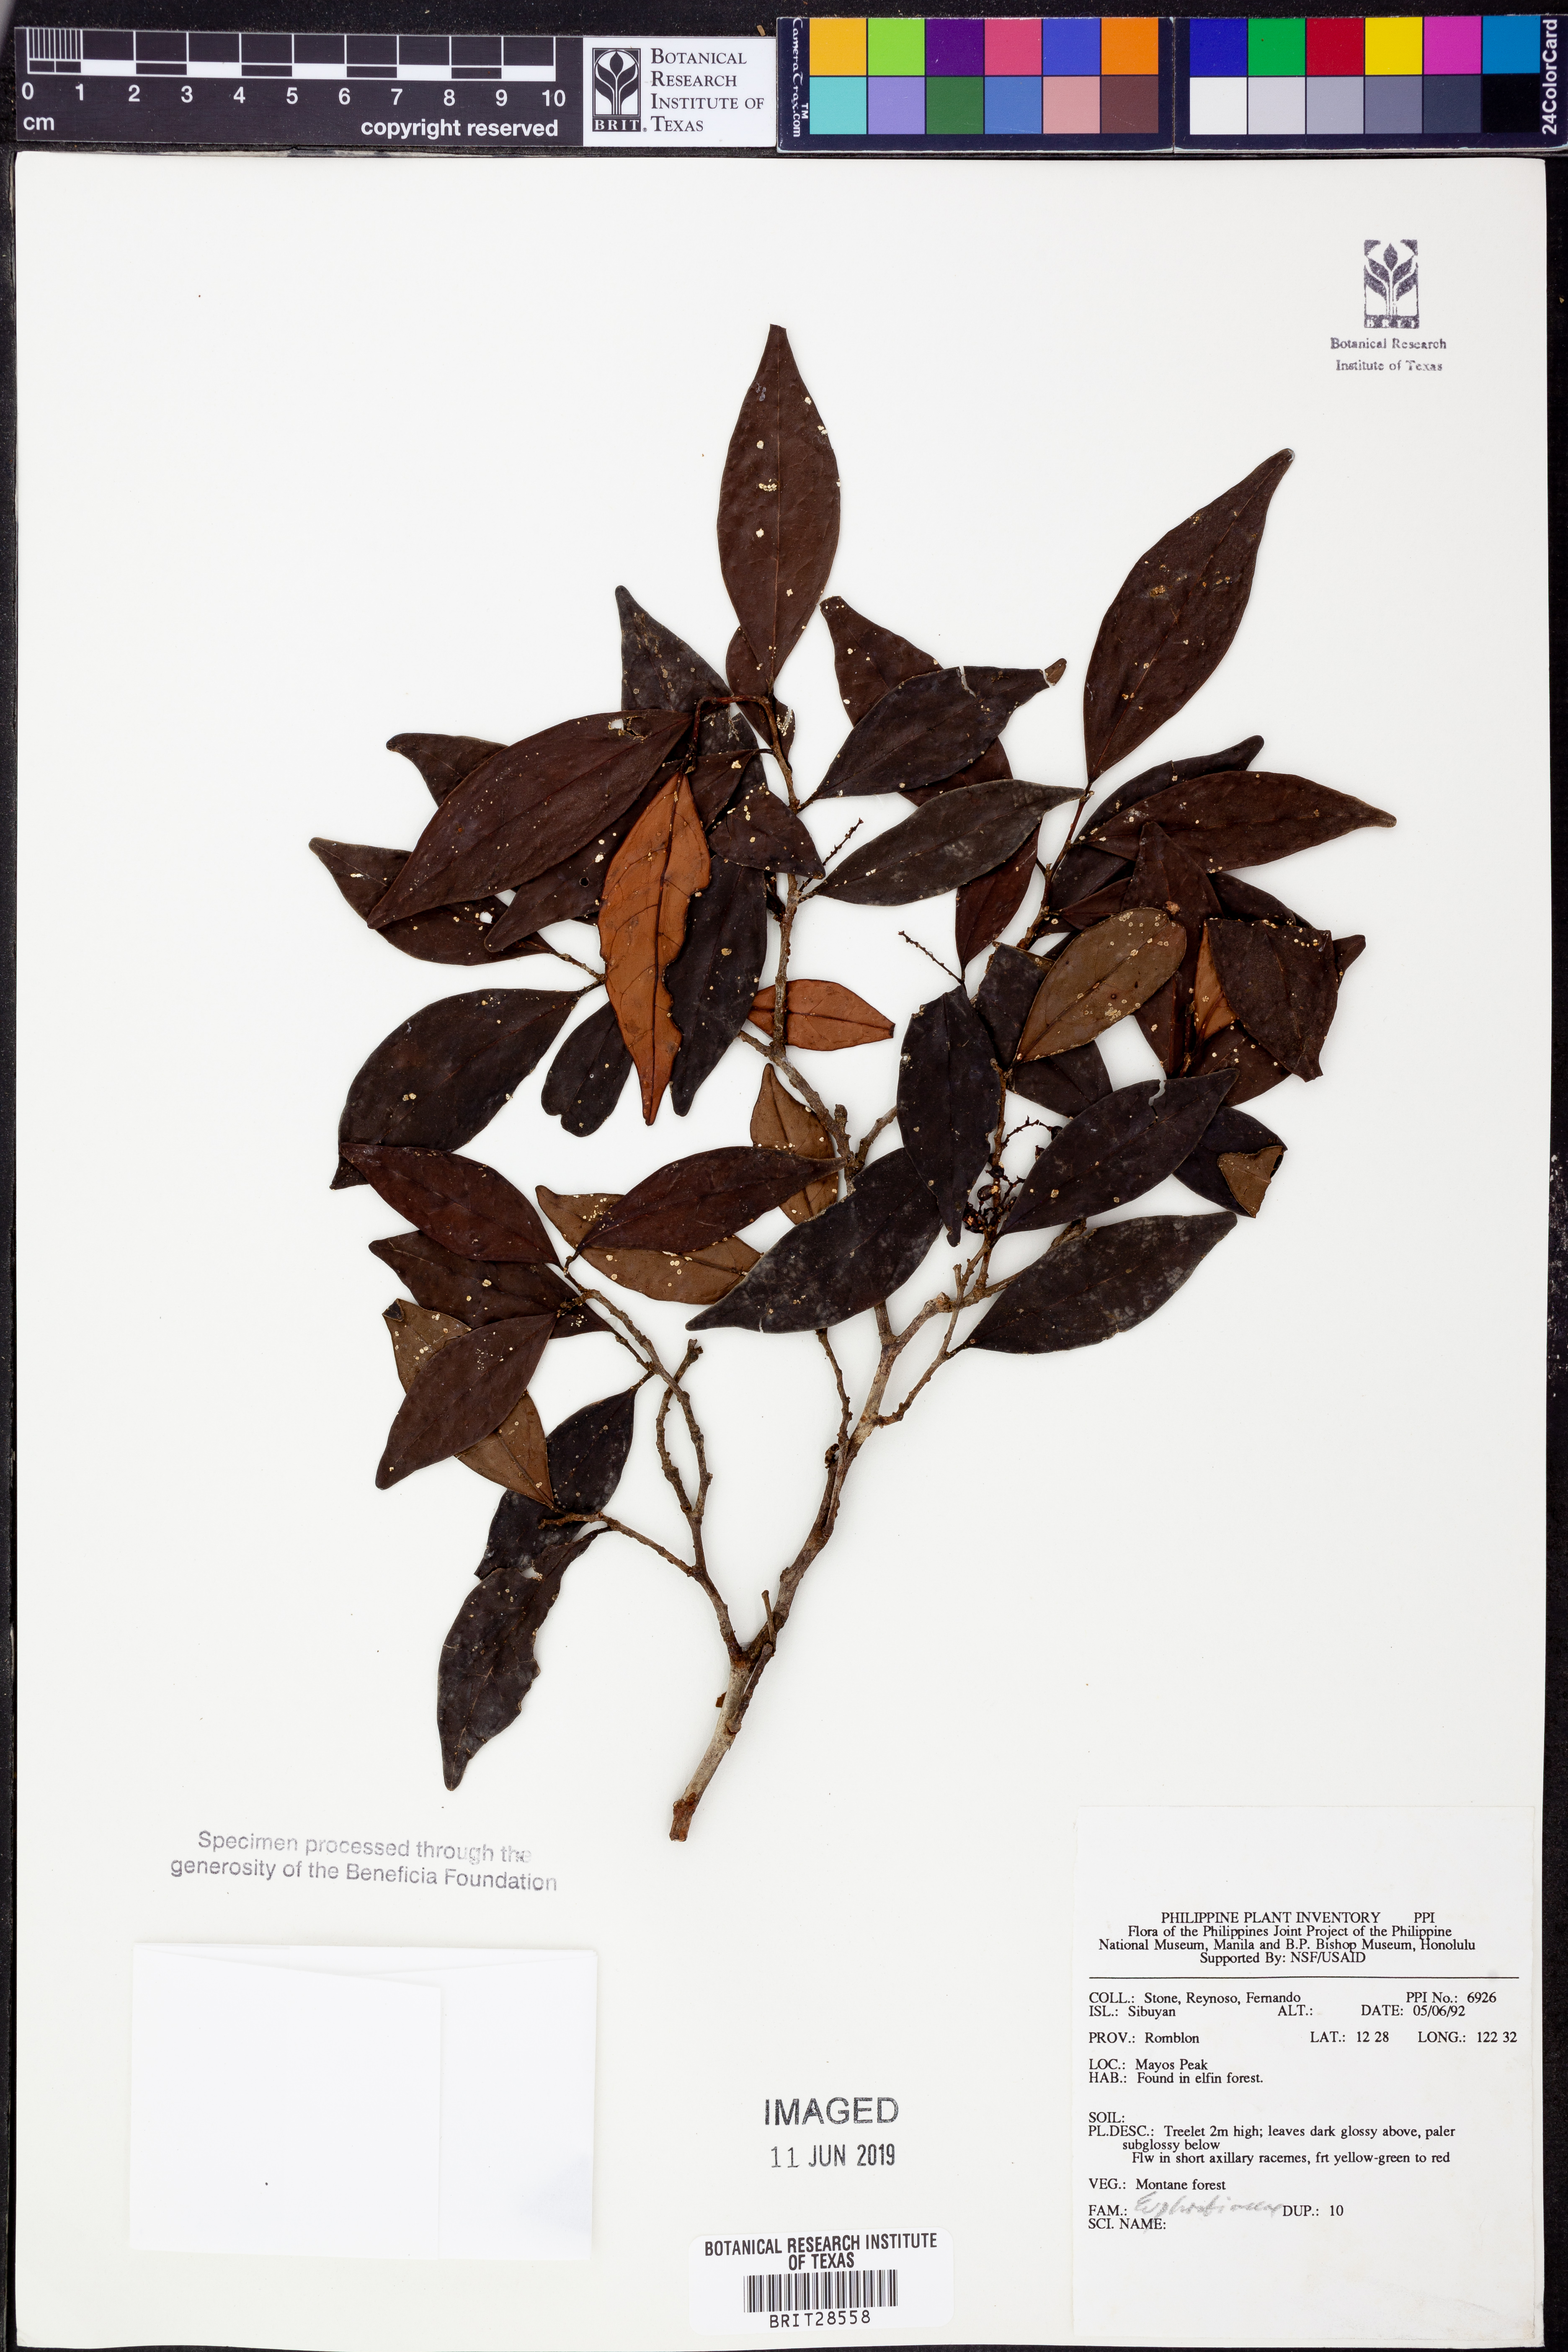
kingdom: Plantae
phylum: Tracheophyta
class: Magnoliopsida
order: Malpighiales
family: Euphorbiaceae
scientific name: Euphorbiaceae
